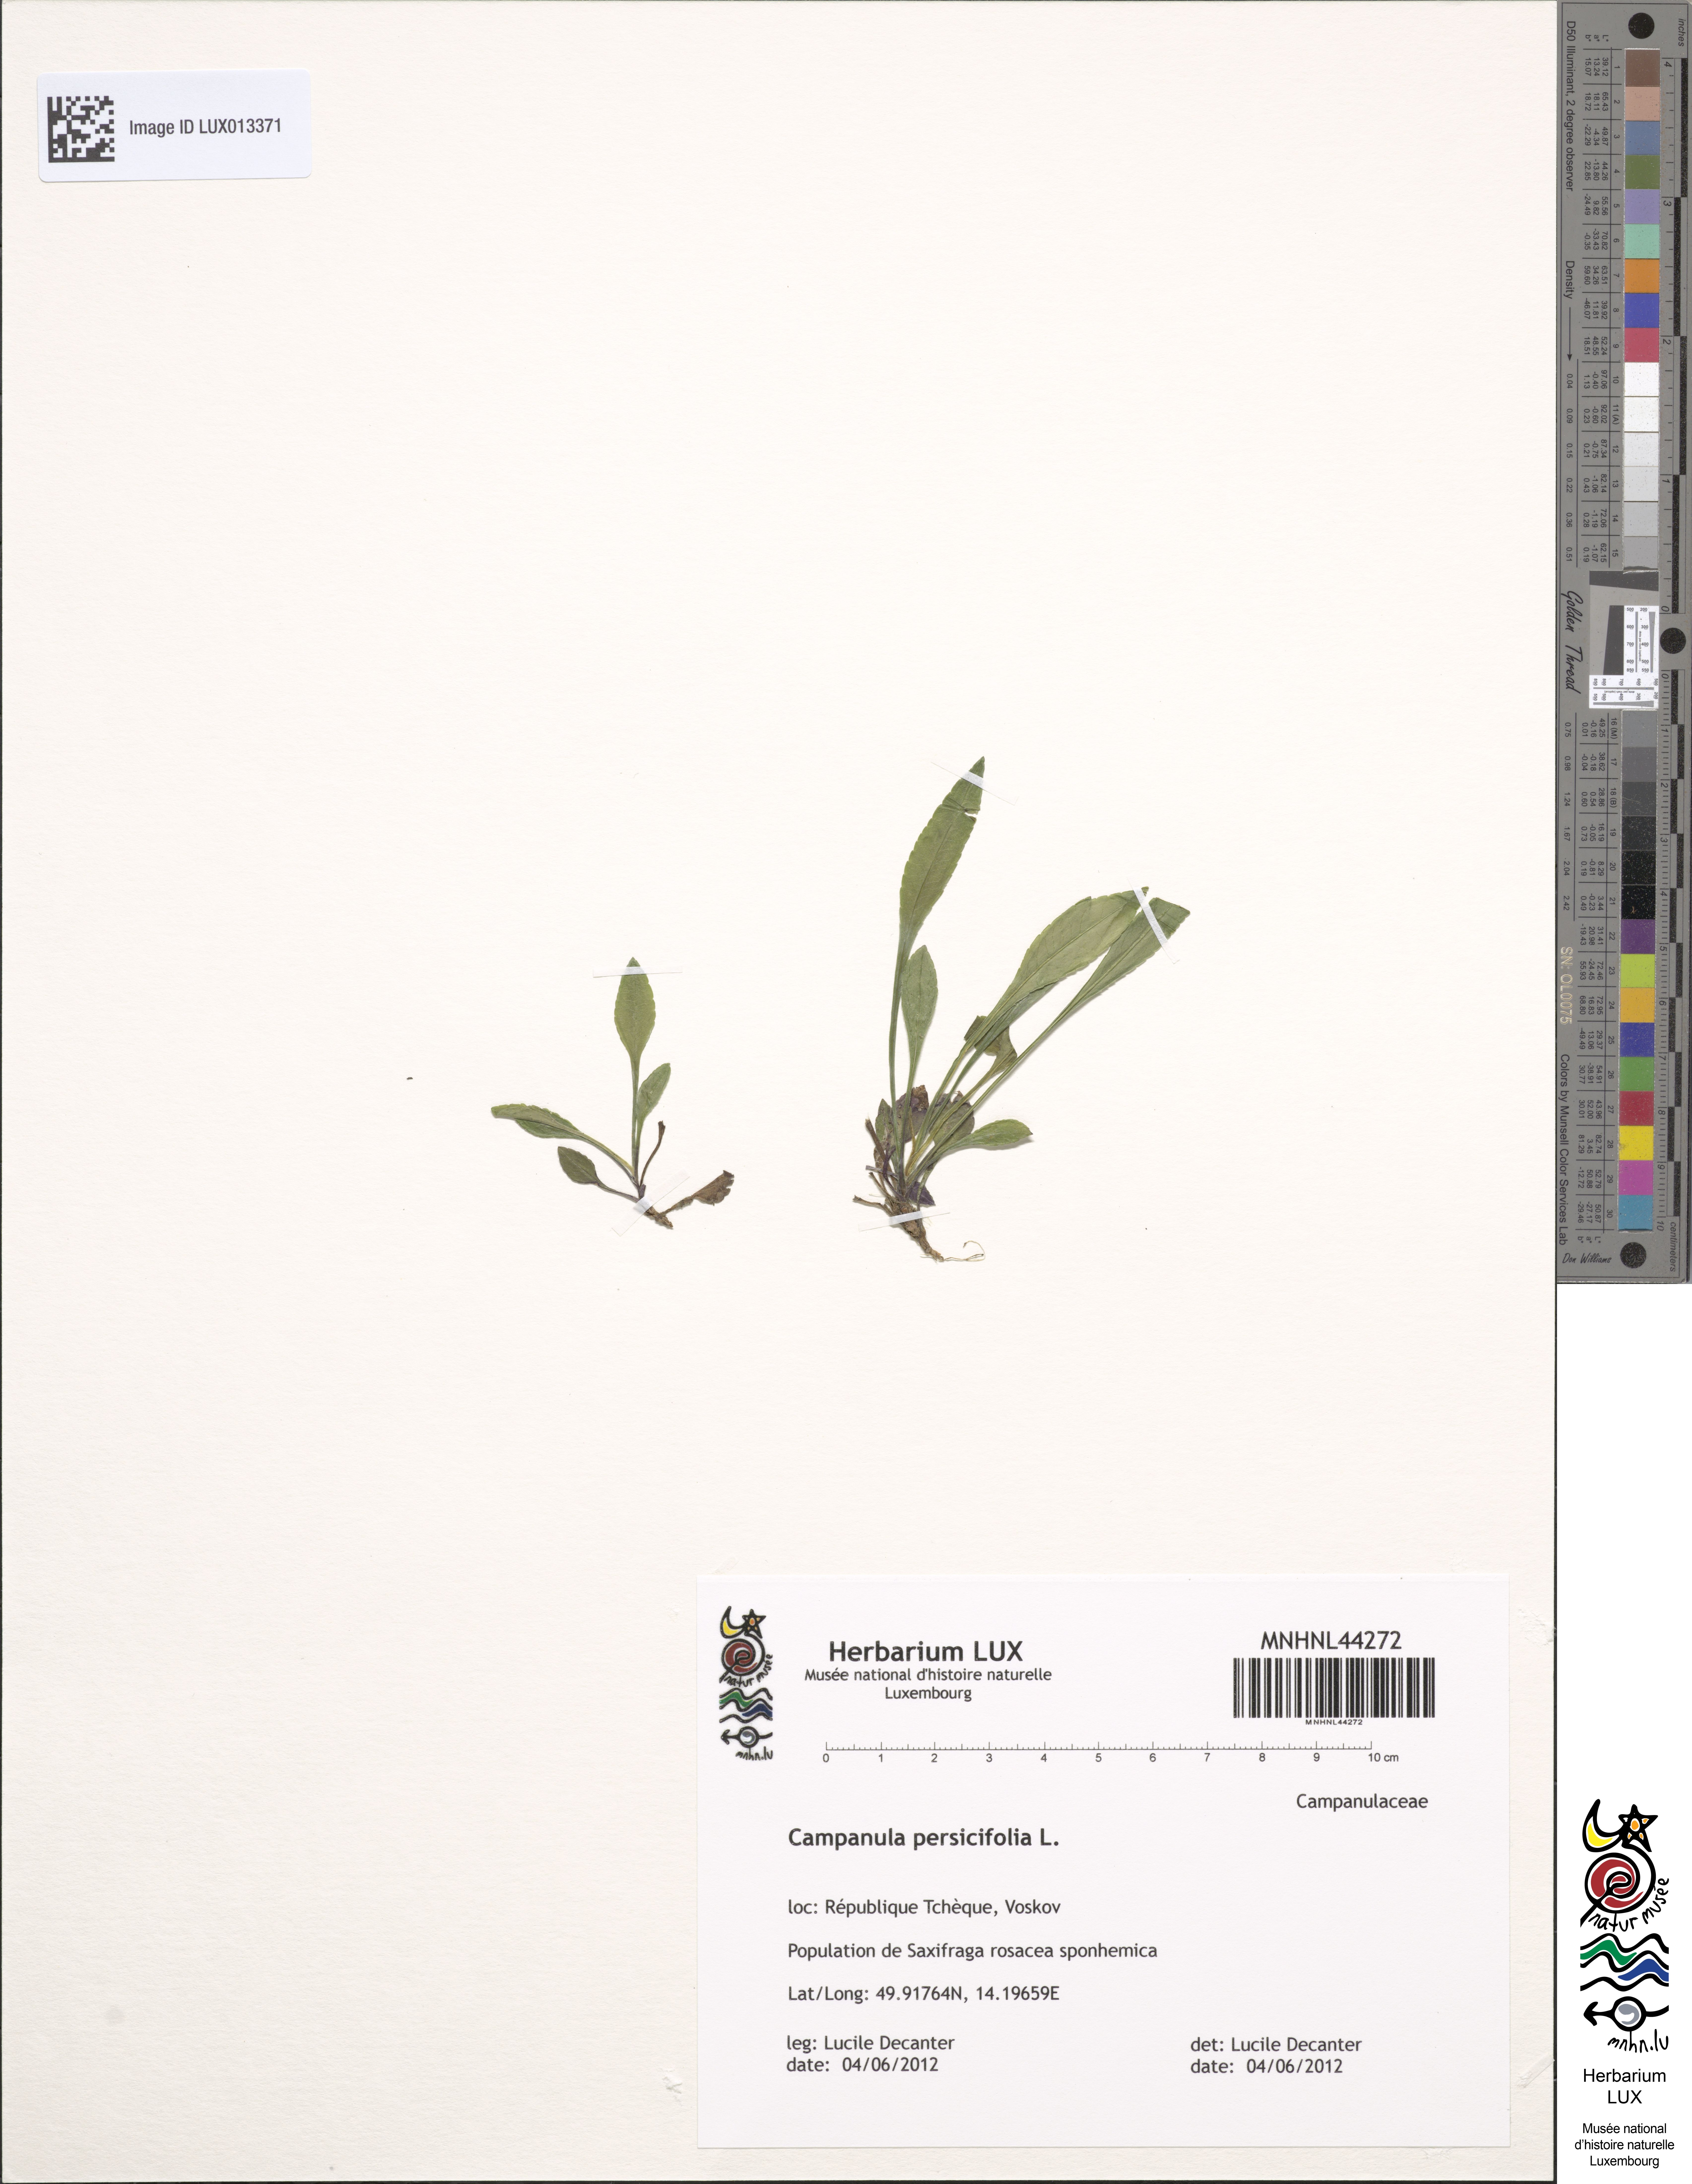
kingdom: Plantae
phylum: Tracheophyta
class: Magnoliopsida
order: Asterales
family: Campanulaceae
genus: Campanula
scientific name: Campanula persicifolia
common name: Peach-leaved bellflower
